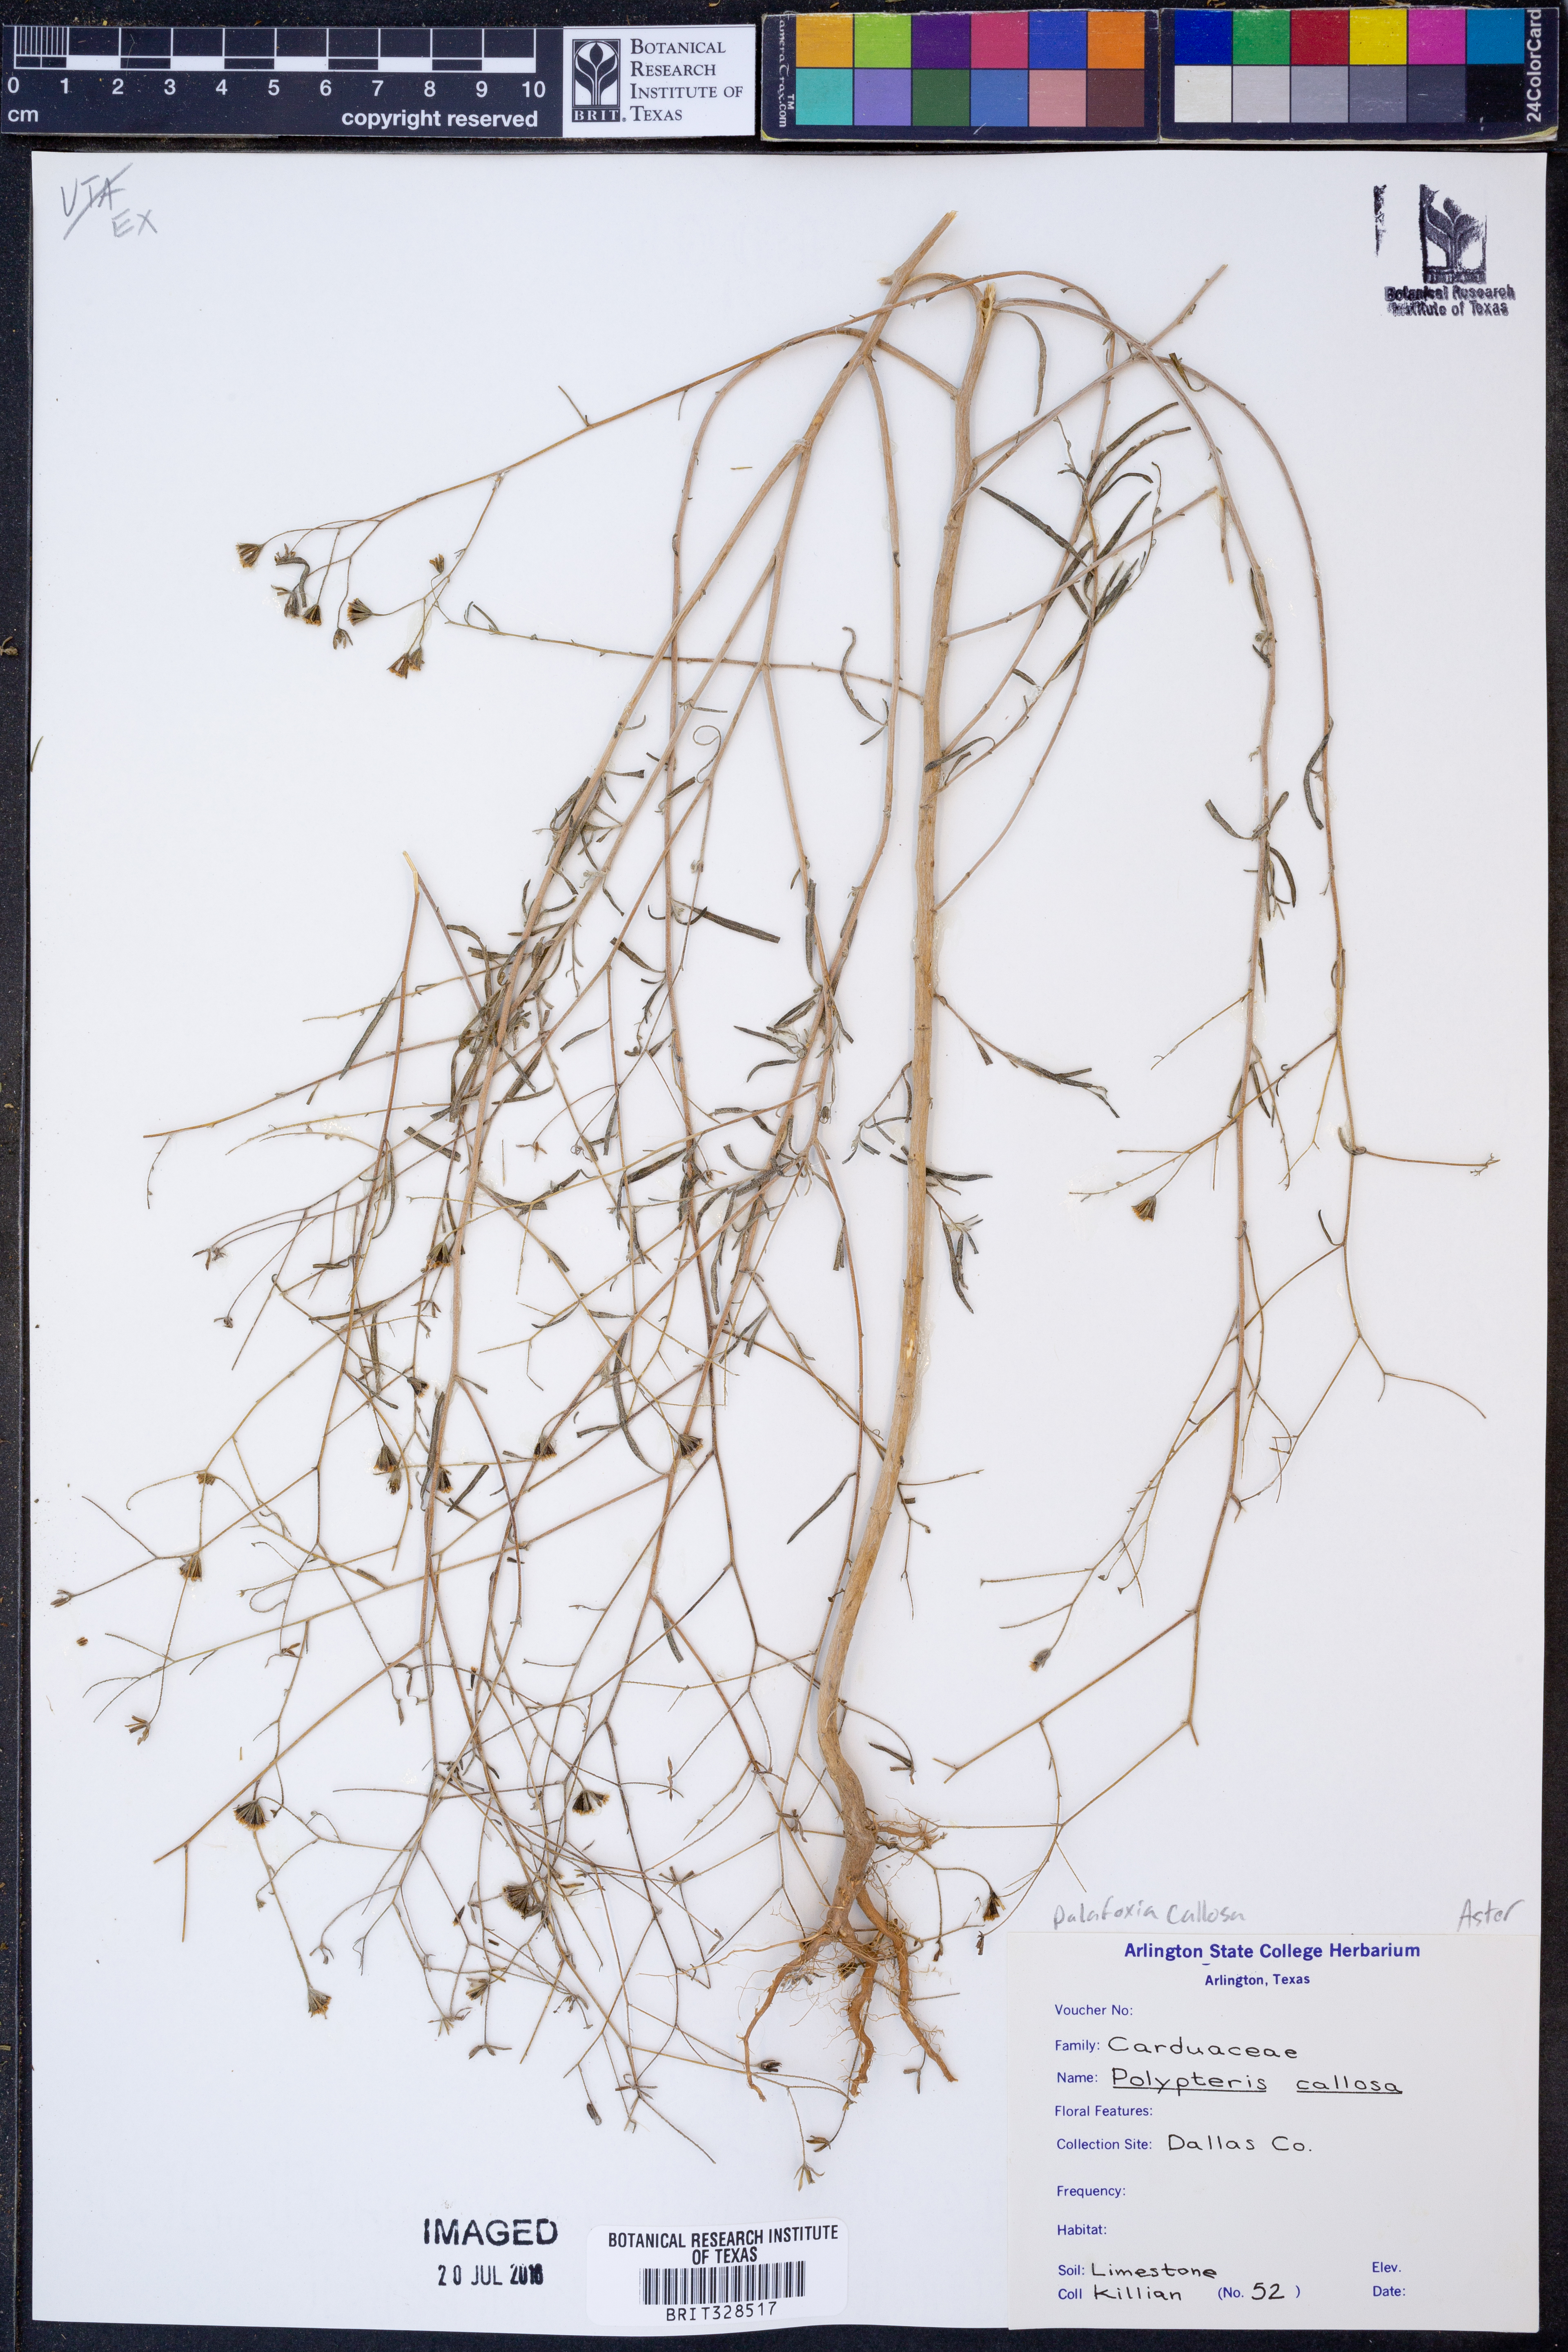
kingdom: Plantae
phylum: Tracheophyta
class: Magnoliopsida
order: Asterales
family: Asteraceae
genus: Palafoxia
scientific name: Palafoxia callosa
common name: Small palafox
